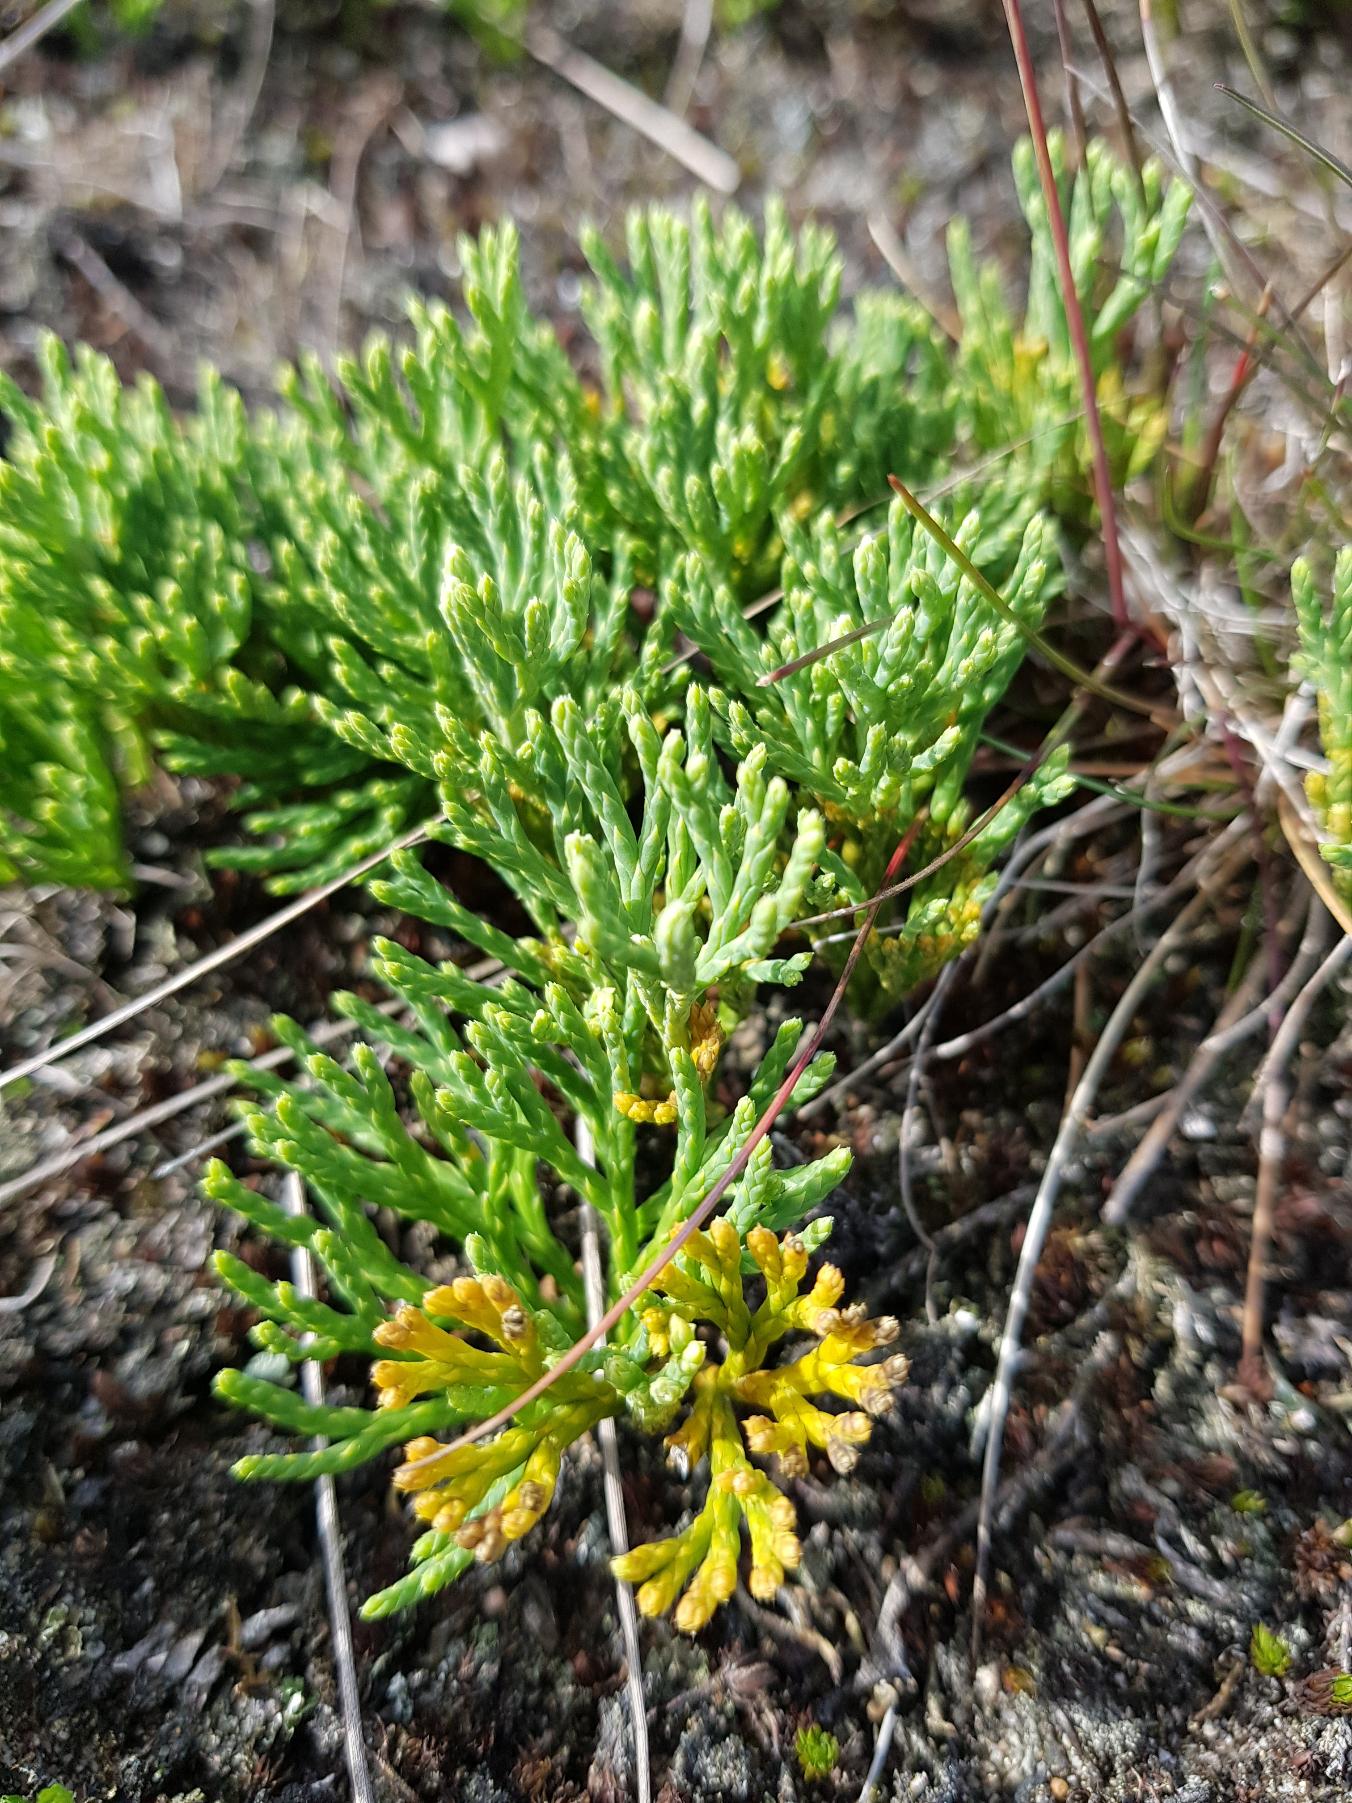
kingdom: Plantae
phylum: Tracheophyta
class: Lycopodiopsida
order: Lycopodiales
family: Lycopodiaceae
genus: Diphasiastrum
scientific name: Diphasiastrum tristachyum
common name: Cypres-ulvefod
